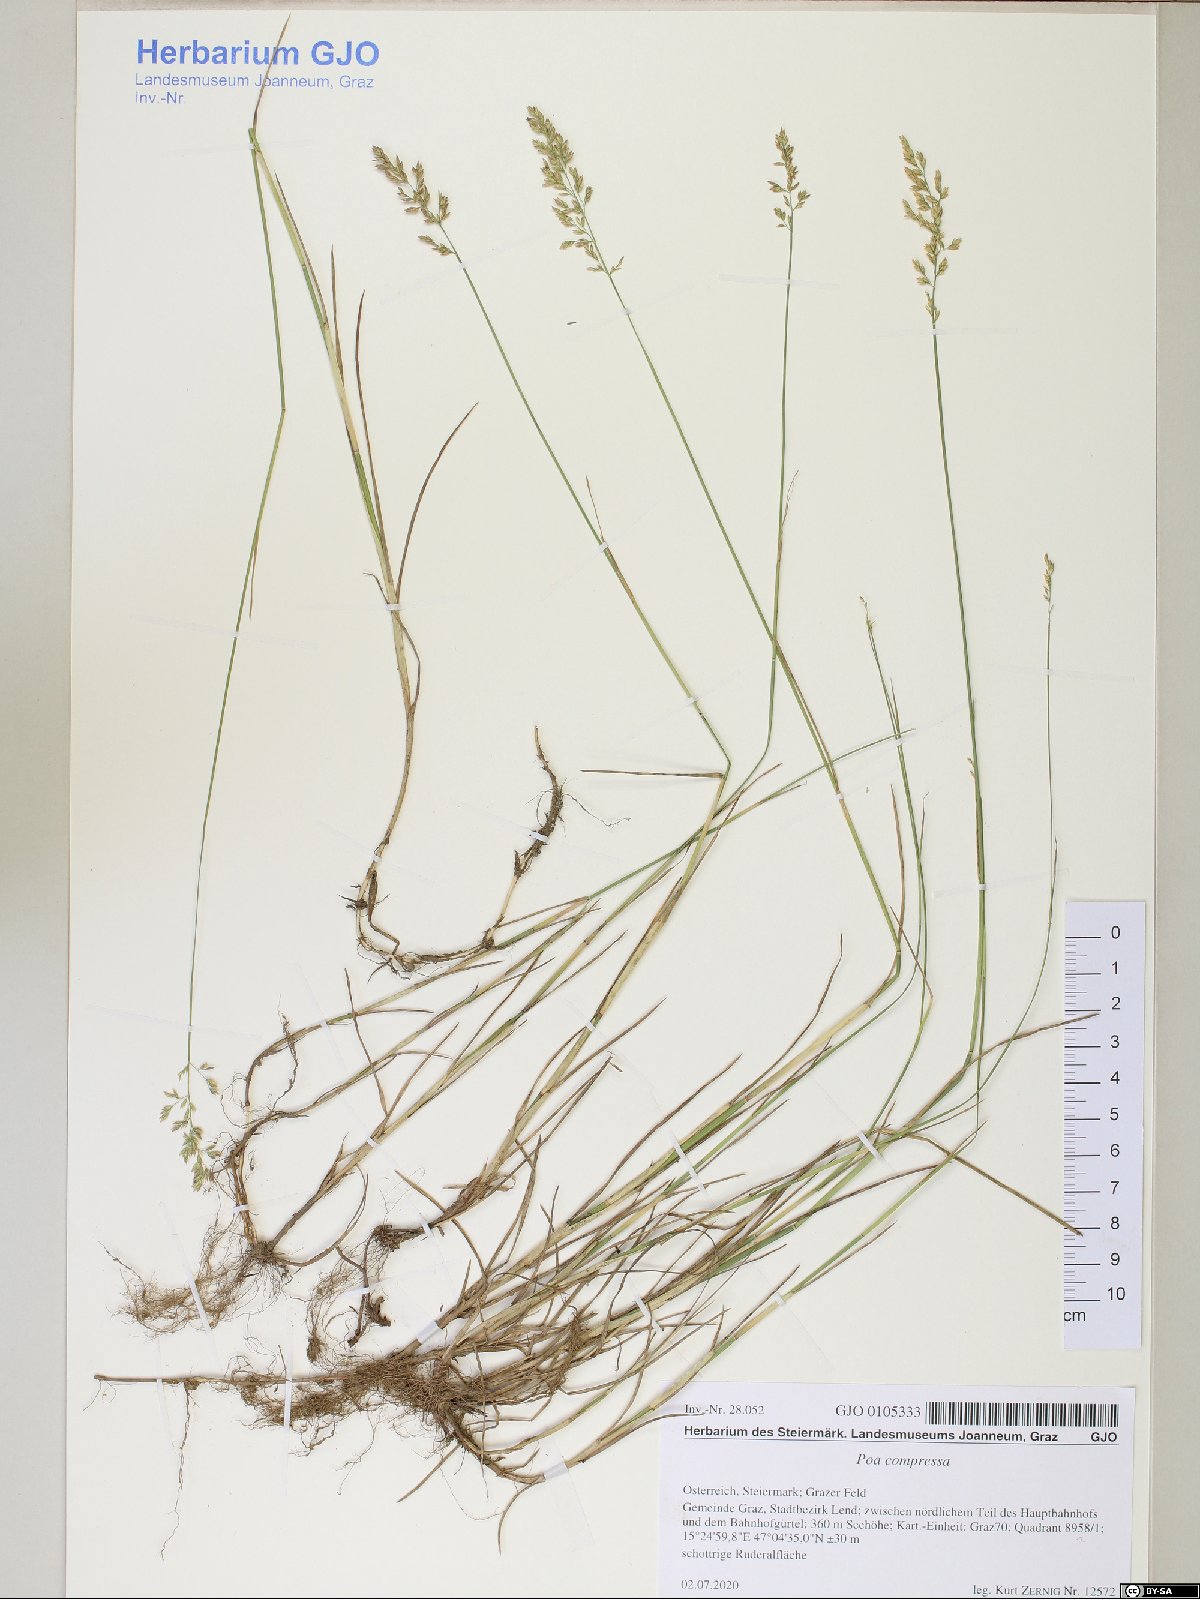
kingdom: Plantae
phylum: Tracheophyta
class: Liliopsida
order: Poales
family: Poaceae
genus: Poa
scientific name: Poa compressa
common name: Canada bluegrass
